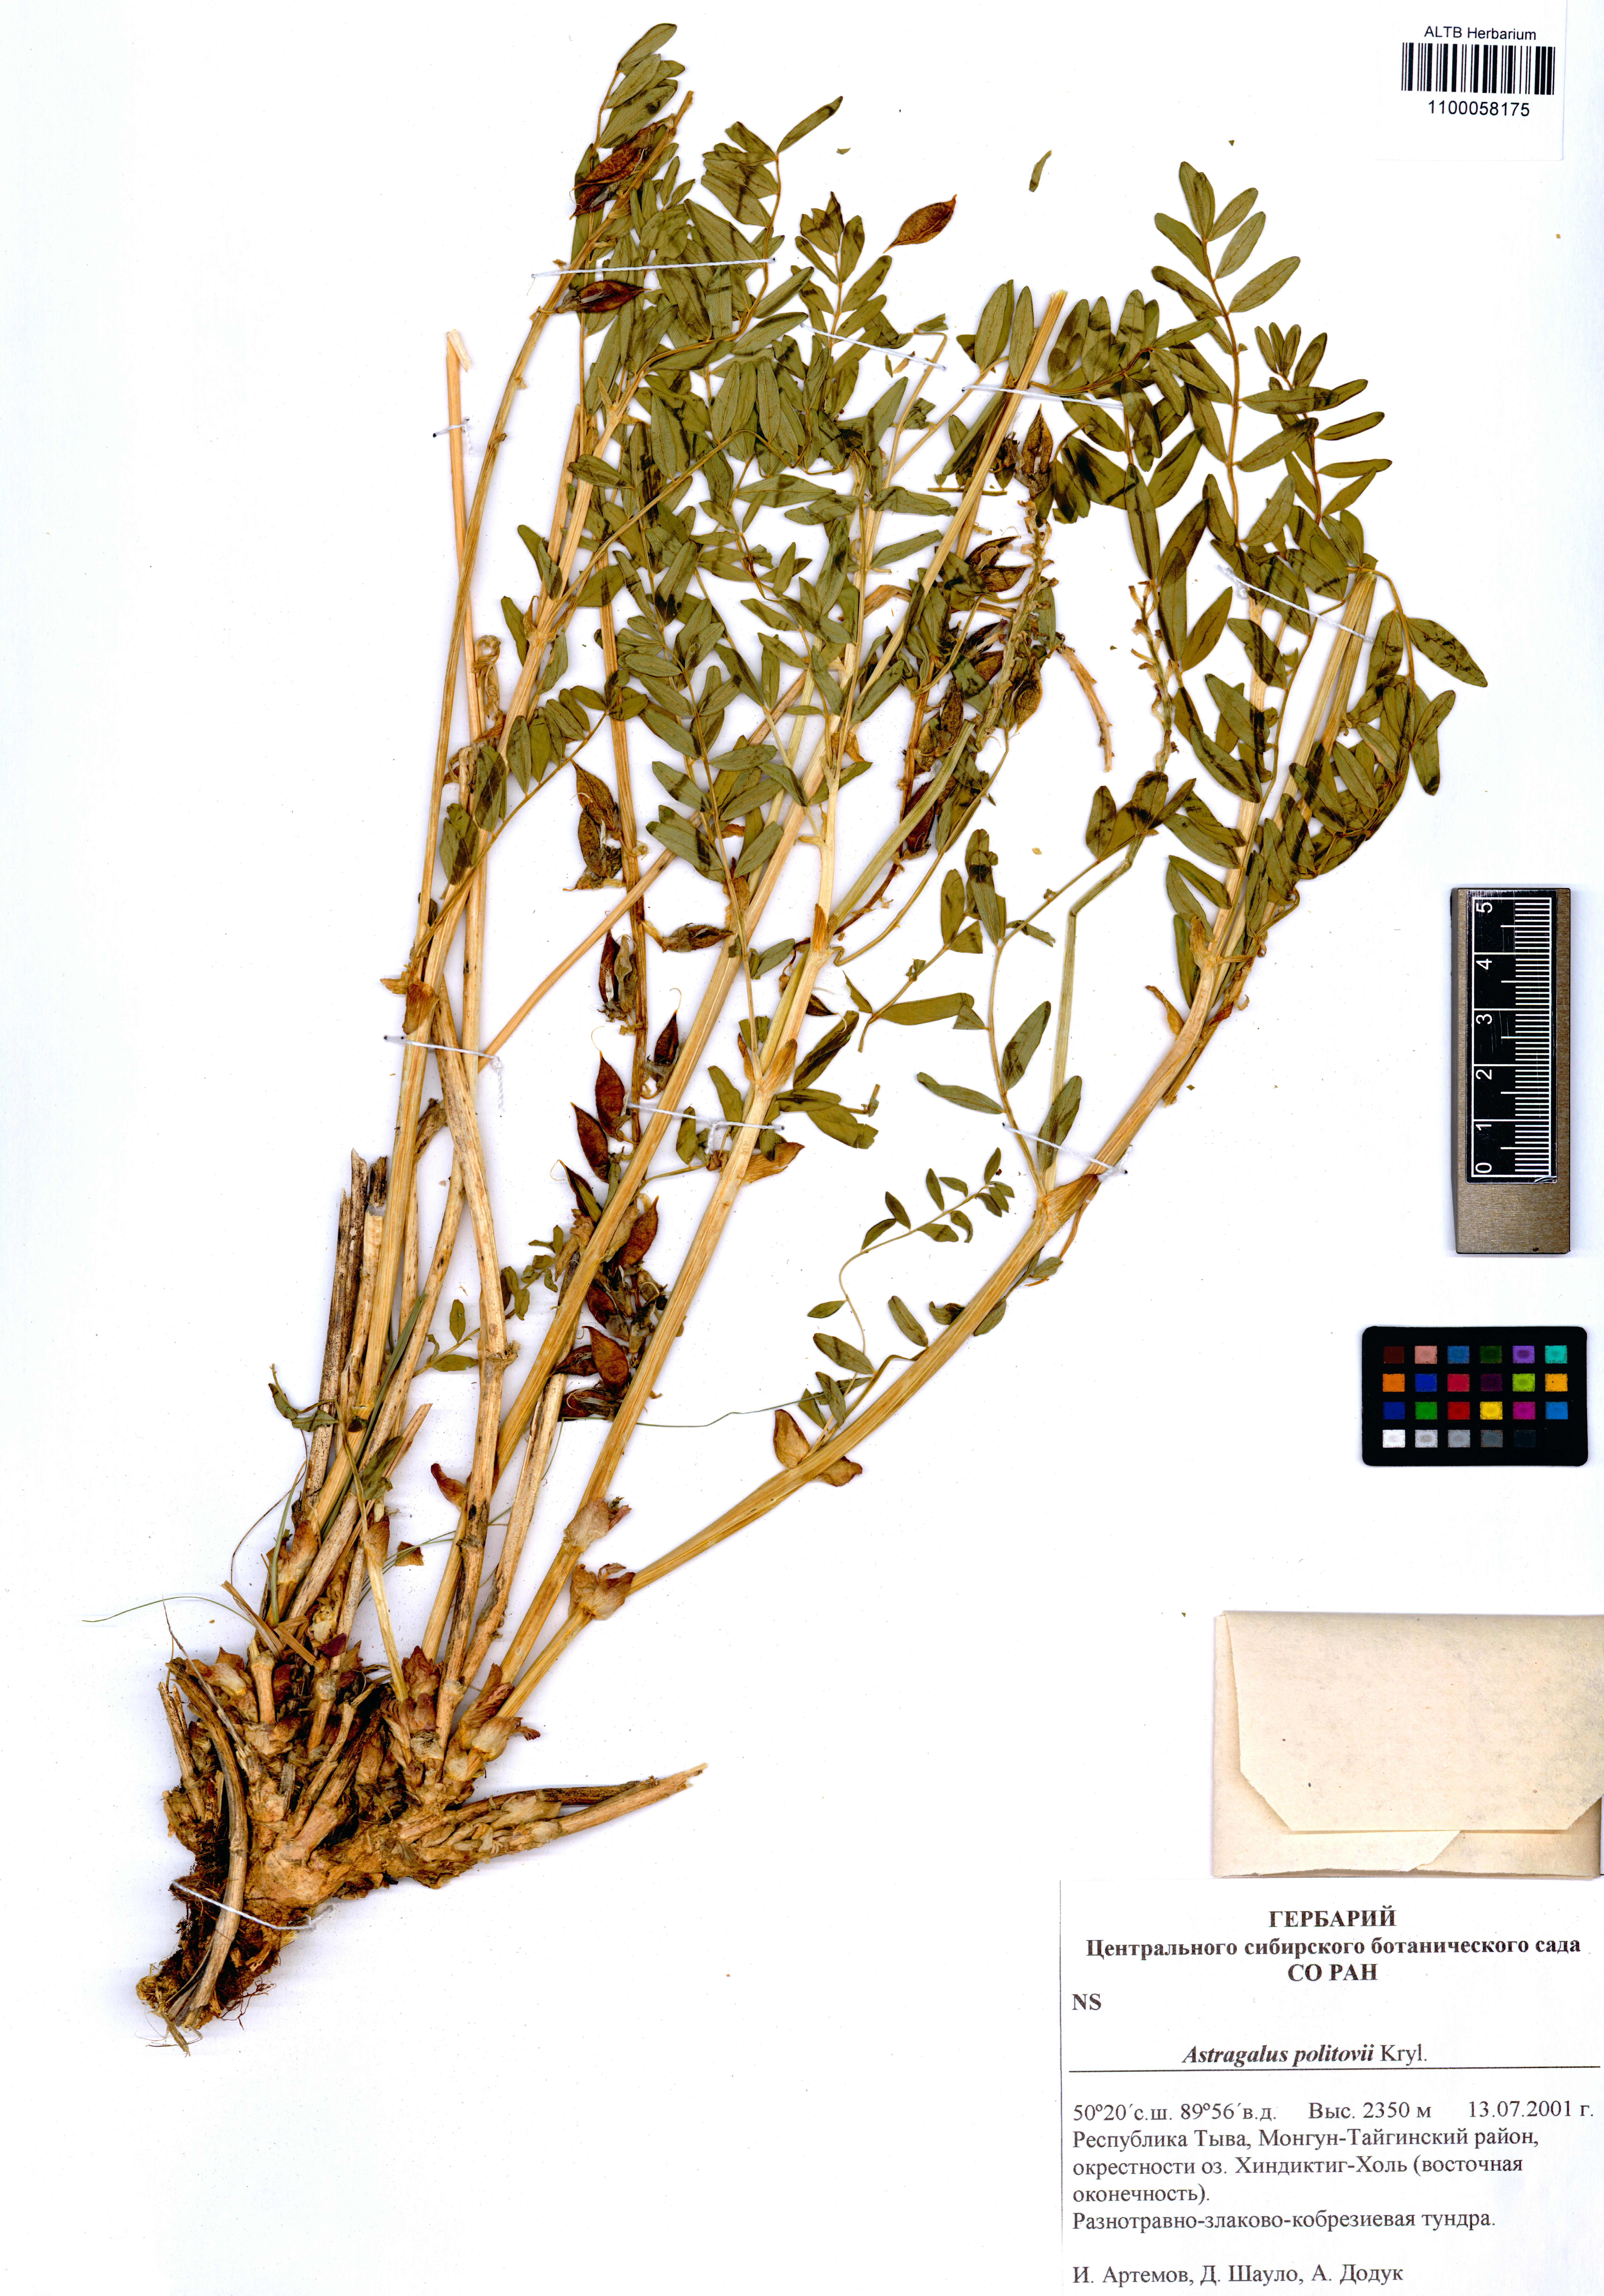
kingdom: Plantae
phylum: Tracheophyta
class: Magnoliopsida
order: Fabales
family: Fabaceae
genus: Astragalus
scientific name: Astragalus politovii
